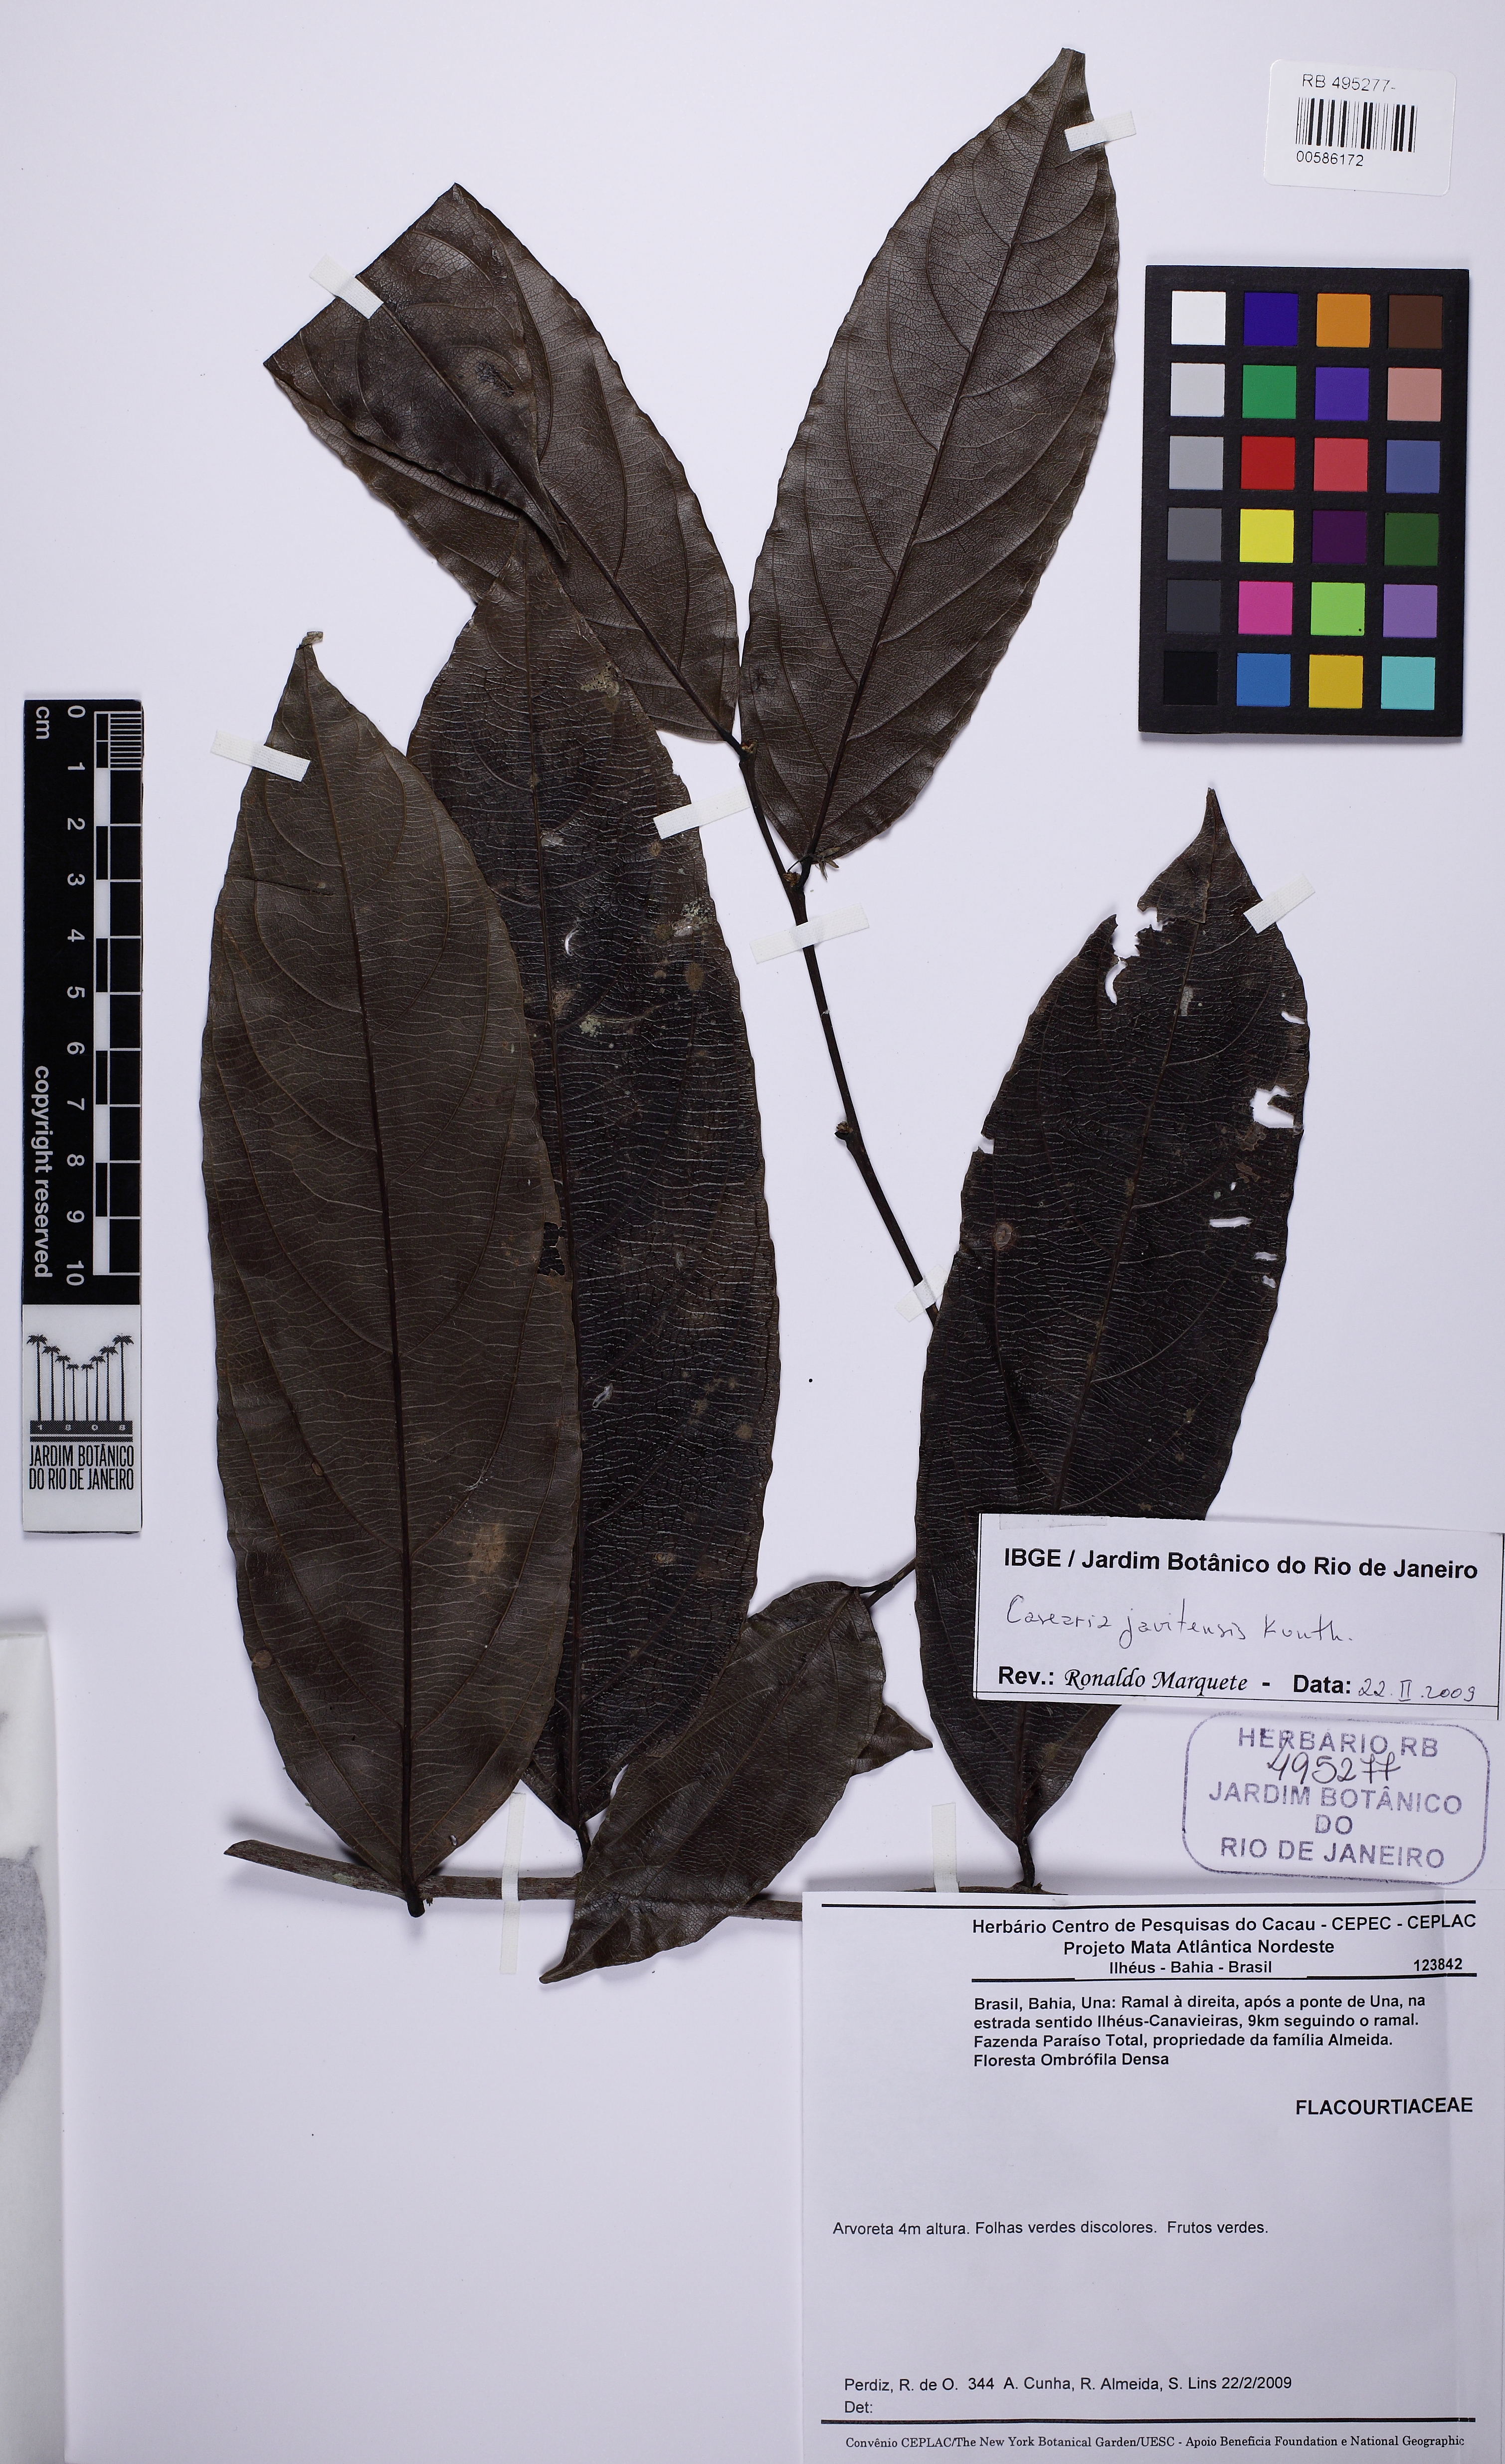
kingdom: Plantae
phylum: Tracheophyta
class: Magnoliopsida
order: Malpighiales
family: Salicaceae
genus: Piparea
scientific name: Piparea multiflora
